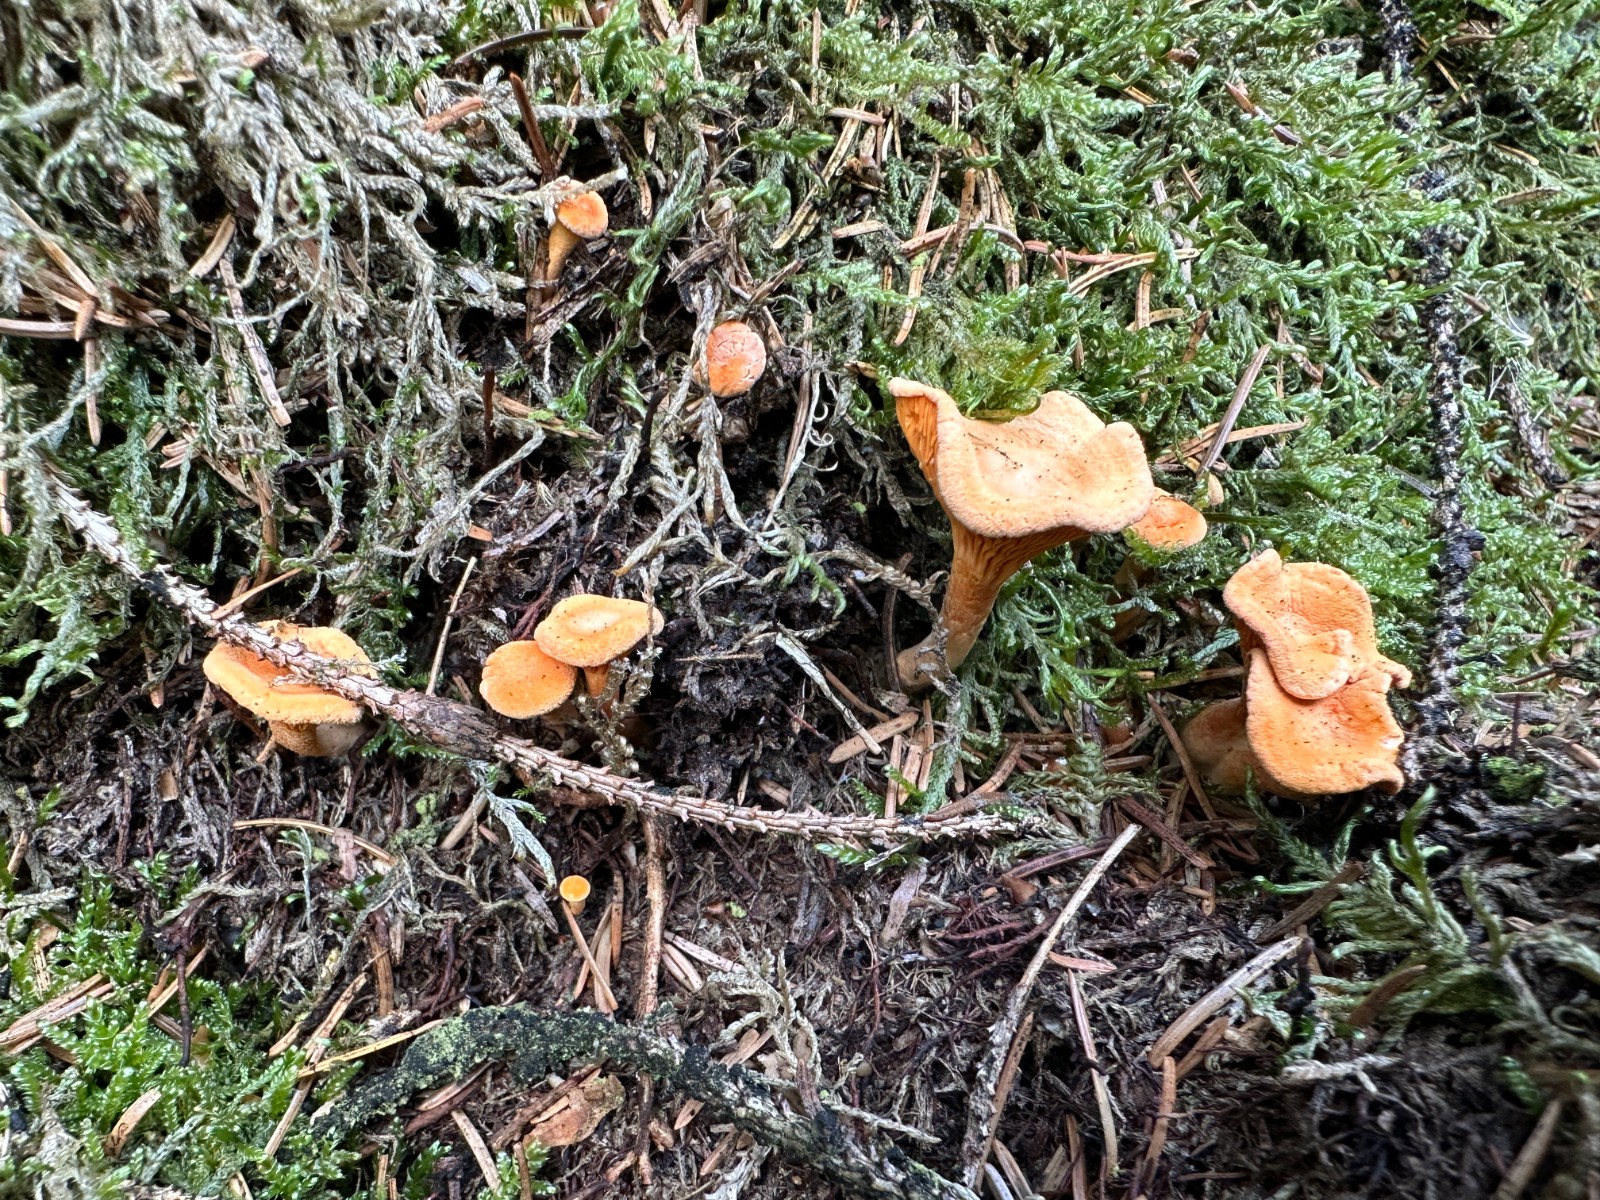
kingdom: Fungi
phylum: Basidiomycota
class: Agaricomycetes
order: Boletales
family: Hygrophoropsidaceae
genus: Hygrophoropsis
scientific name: Hygrophoropsis aurantiaca
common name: almindelig orangekantarel
